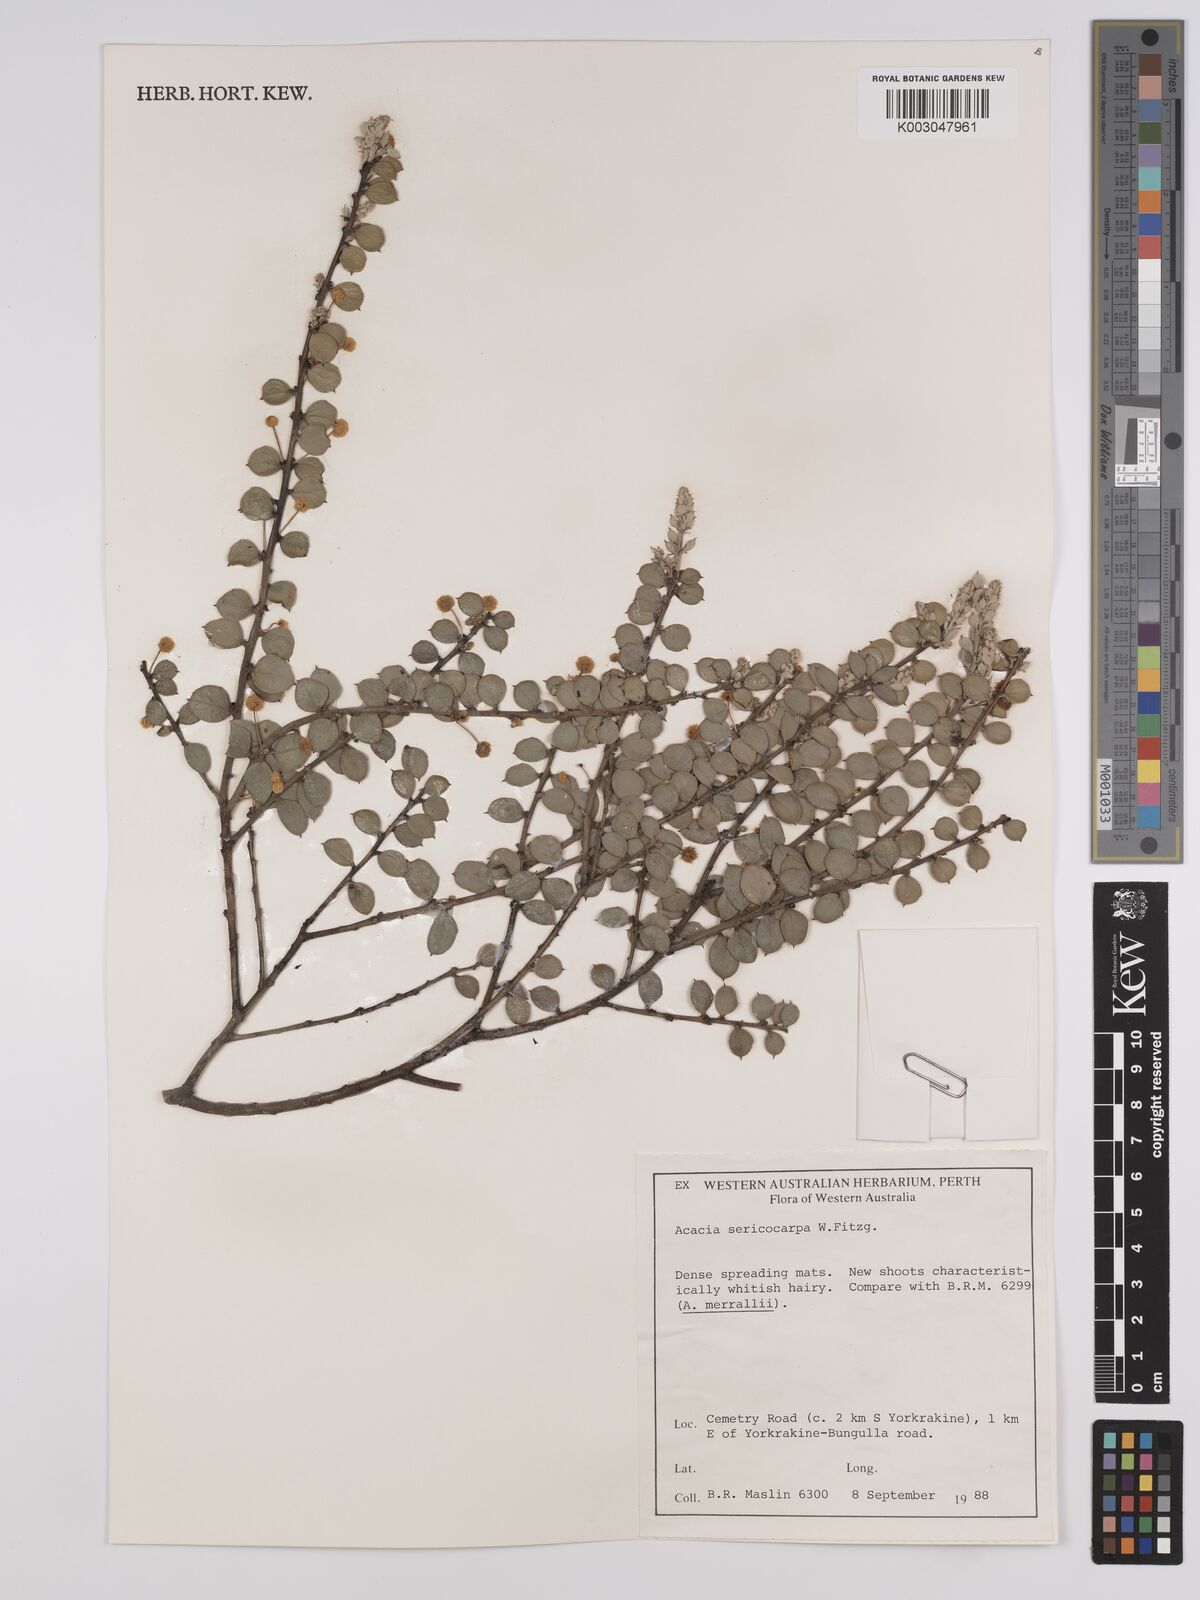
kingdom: Plantae
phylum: Tracheophyta
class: Magnoliopsida
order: Fabales
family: Fabaceae
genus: Acacia
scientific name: Acacia merrallii
